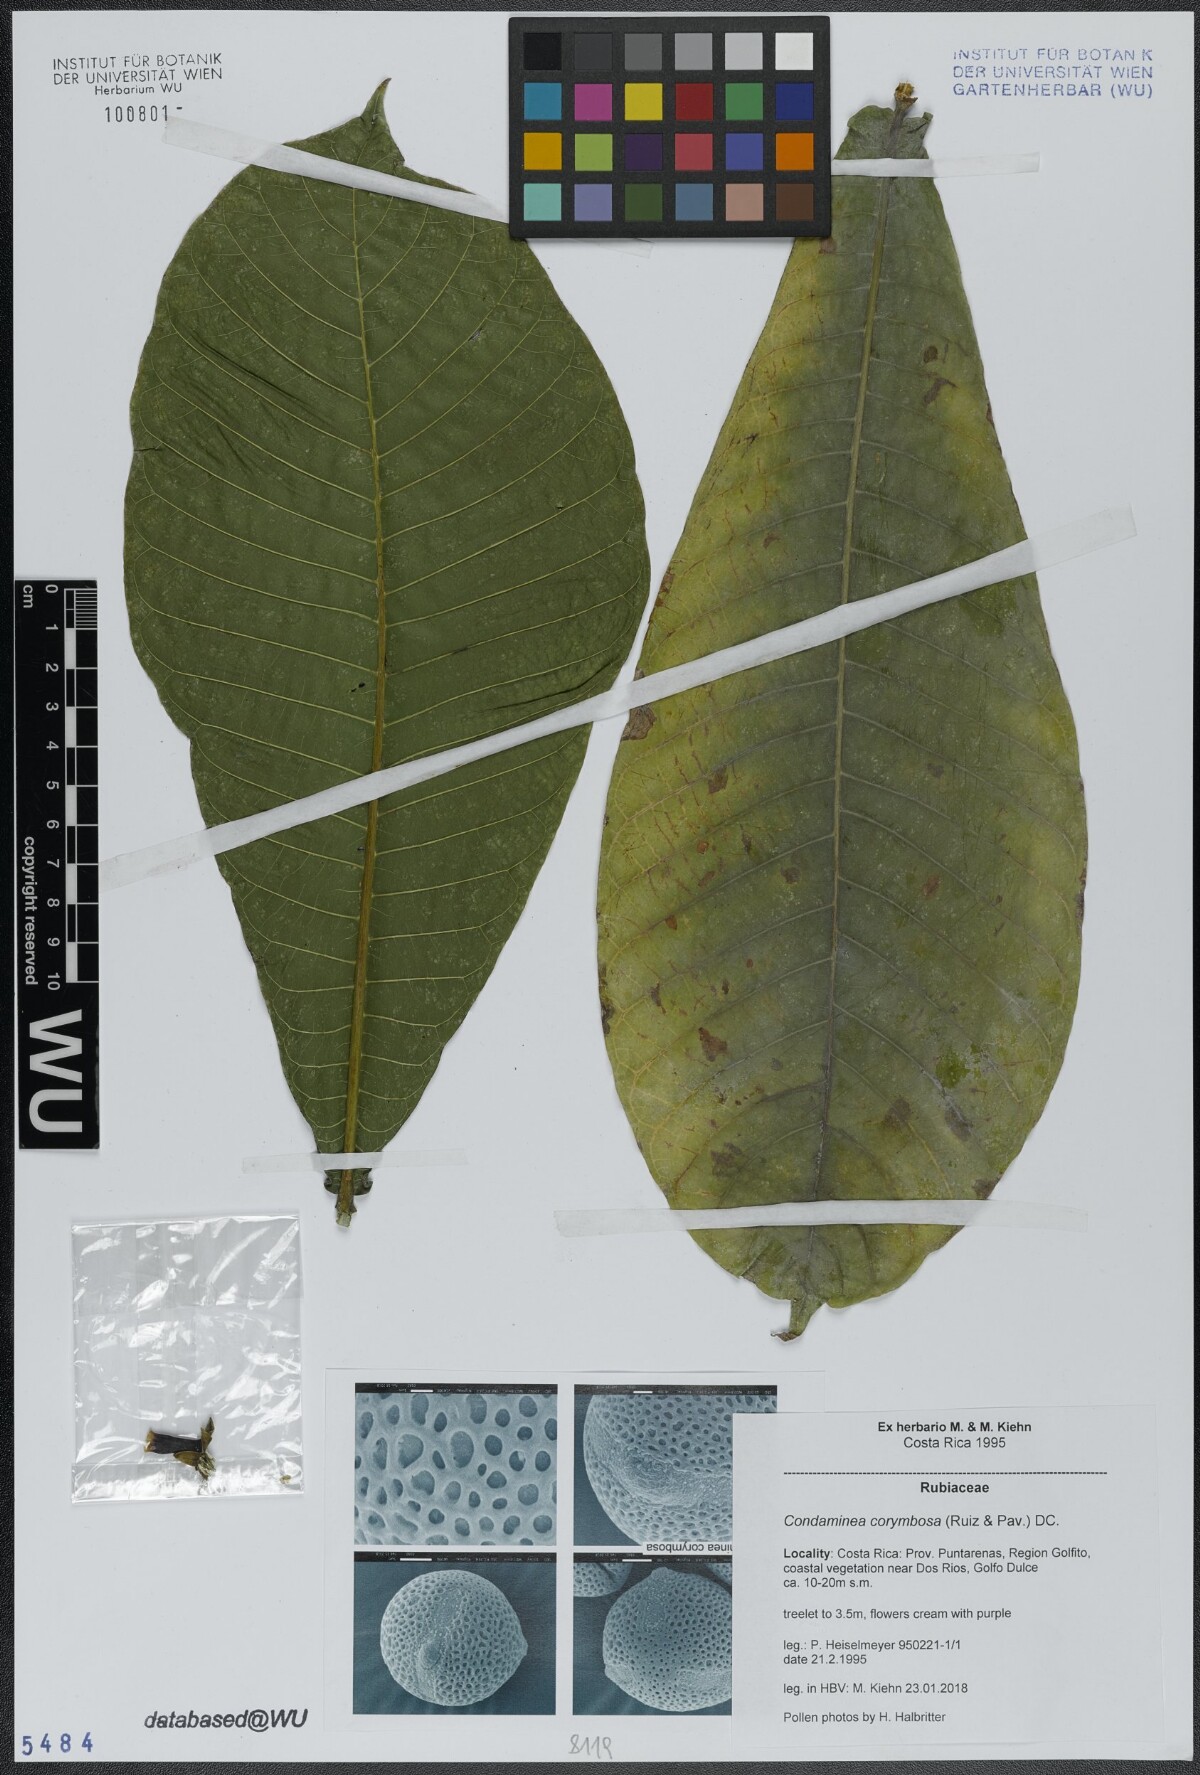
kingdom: Plantae
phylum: Tracheophyta
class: Magnoliopsida
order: Gentianales
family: Rubiaceae
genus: Condaminea
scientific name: Condaminea corymbosa
